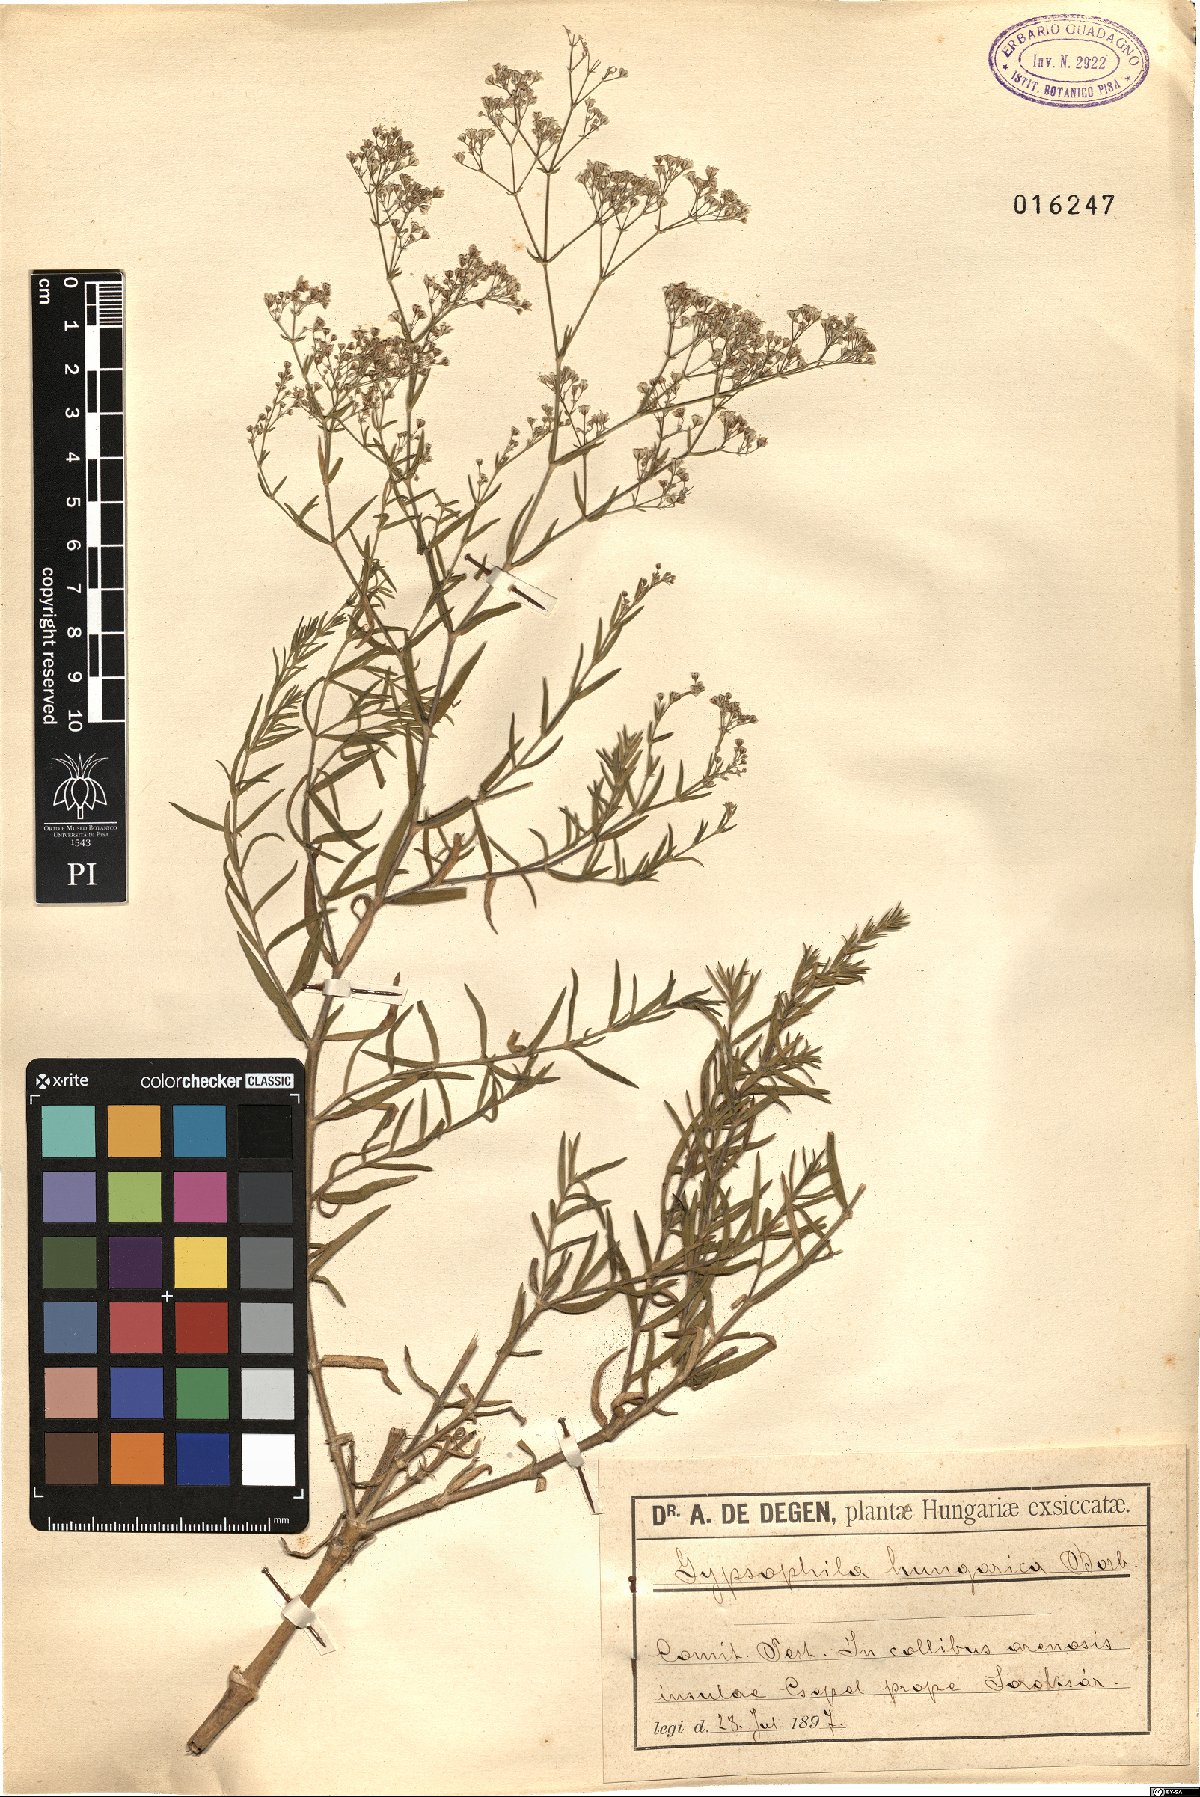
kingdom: Plantae
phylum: Tracheophyta
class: Magnoliopsida
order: Caryophyllales
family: Caryophyllaceae
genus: Gypsophila
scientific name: Gypsophila paniculata
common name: Baby's-breath
